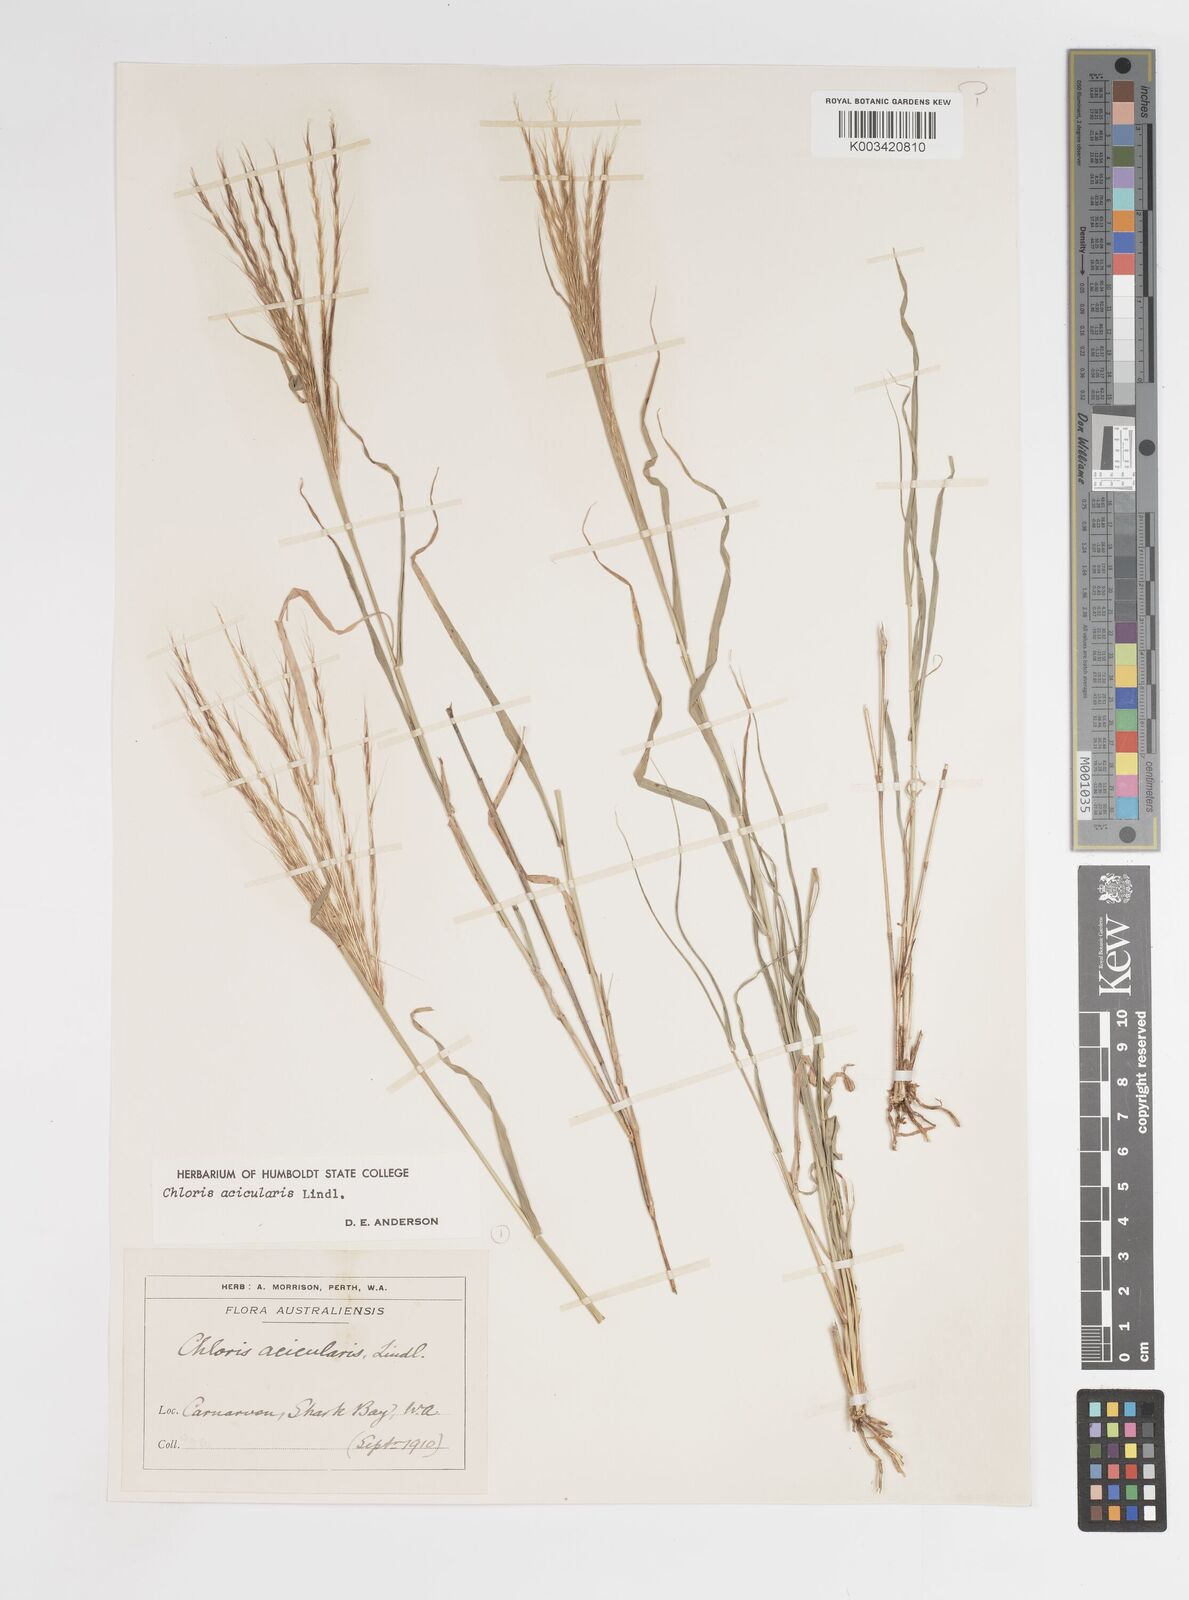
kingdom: Plantae
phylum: Tracheophyta
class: Liliopsida
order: Poales
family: Poaceae
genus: Enteropogon
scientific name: Enteropogon acicularis
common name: Curly windmill grass
